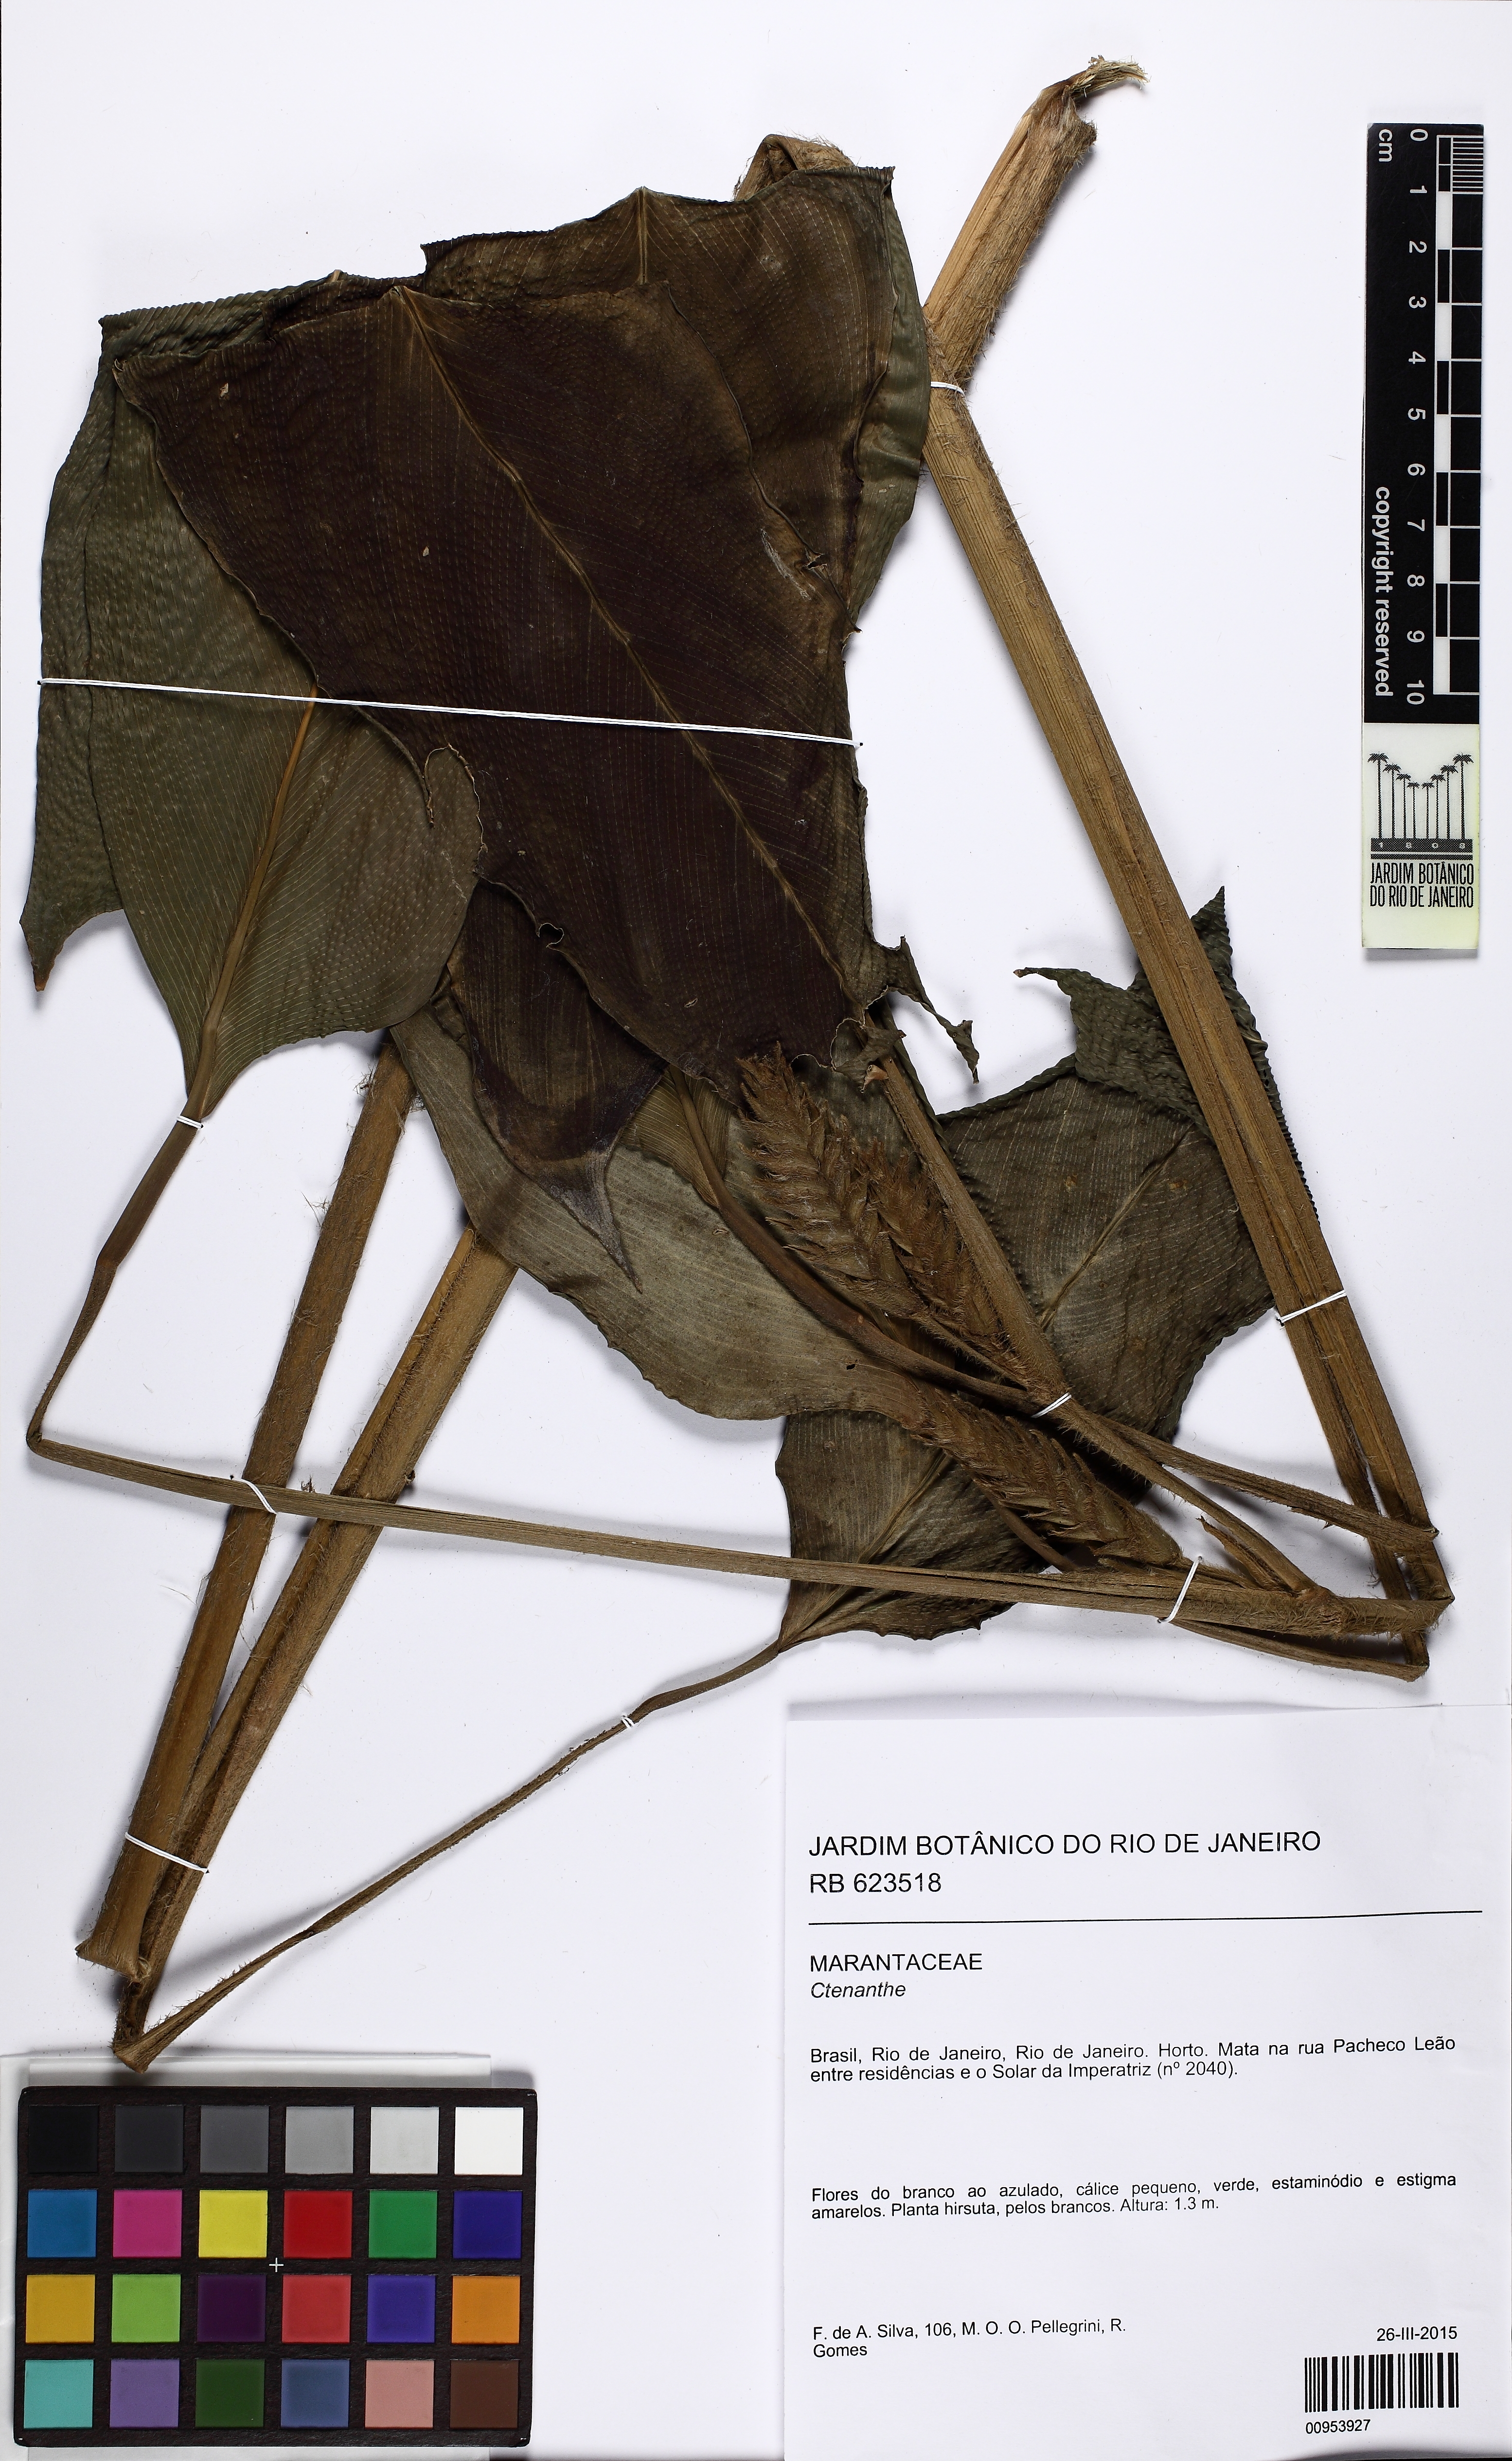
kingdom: Plantae
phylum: Tracheophyta
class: Liliopsida
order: Zingiberales
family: Marantaceae
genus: Ctenanthe
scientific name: Ctenanthe
